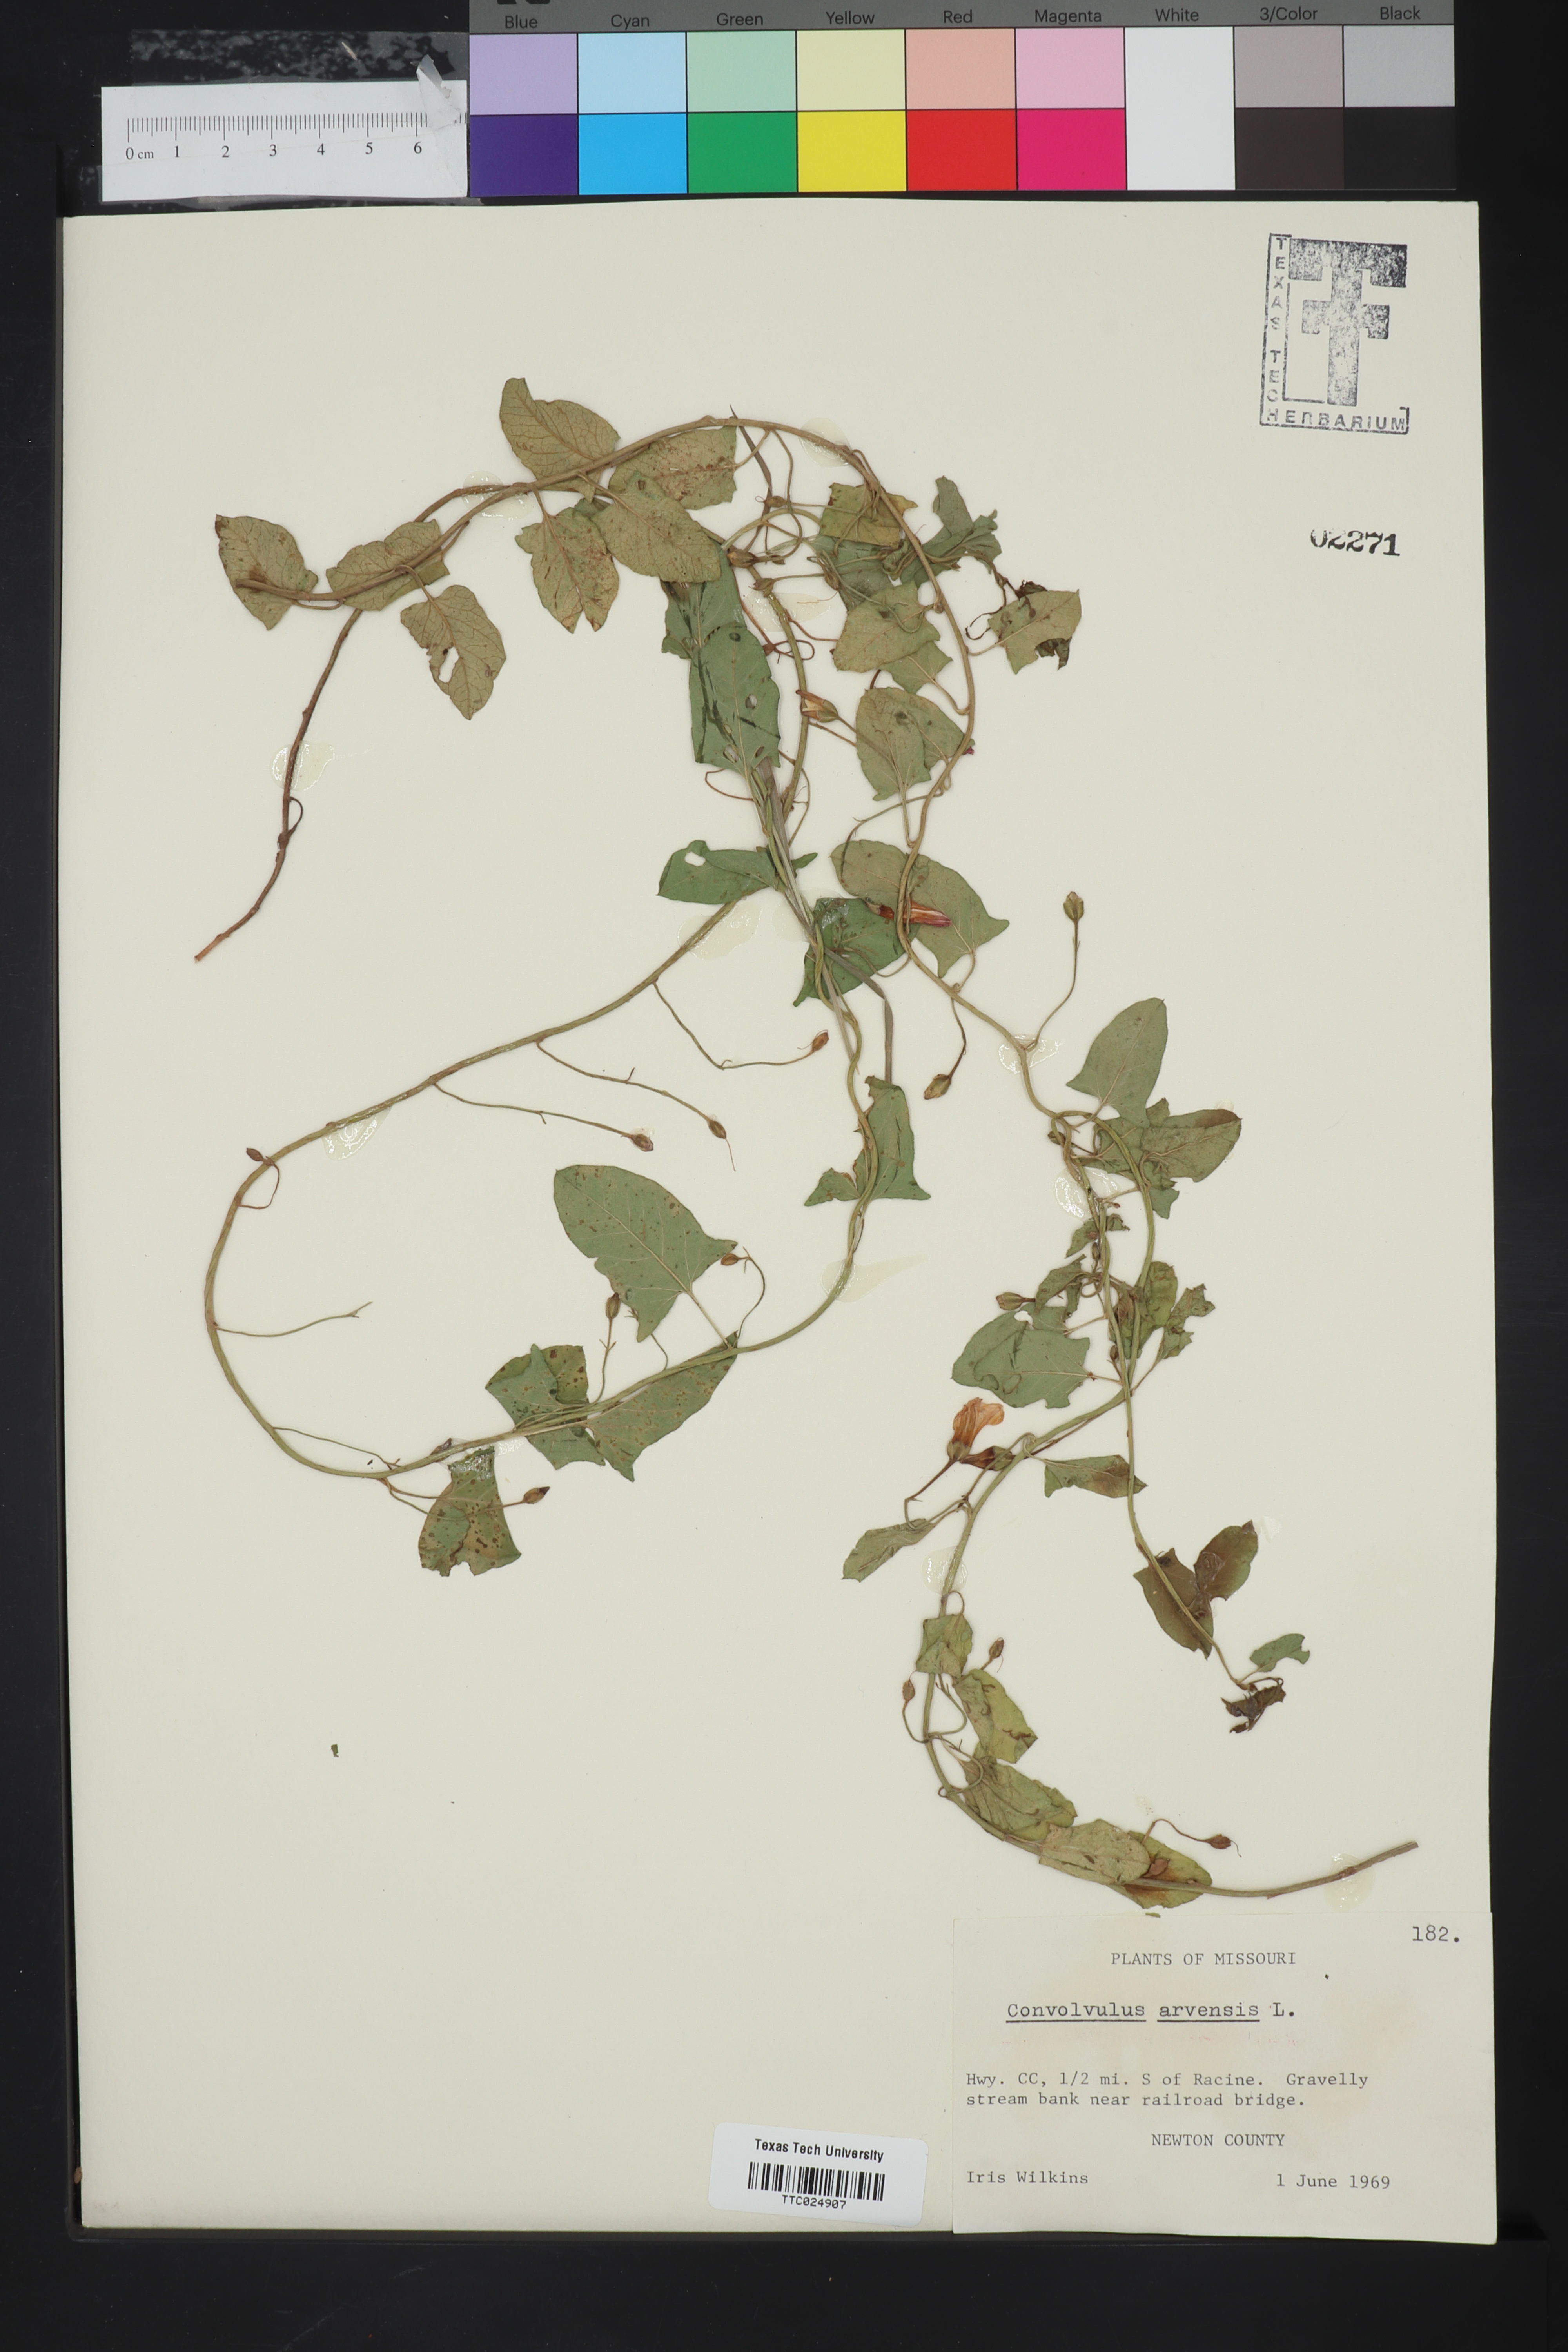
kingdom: Plantae
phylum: Tracheophyta
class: Magnoliopsida
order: Solanales
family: Convolvulaceae
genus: Convolvulus
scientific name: Convolvulus arvensis
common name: Field bindweed
